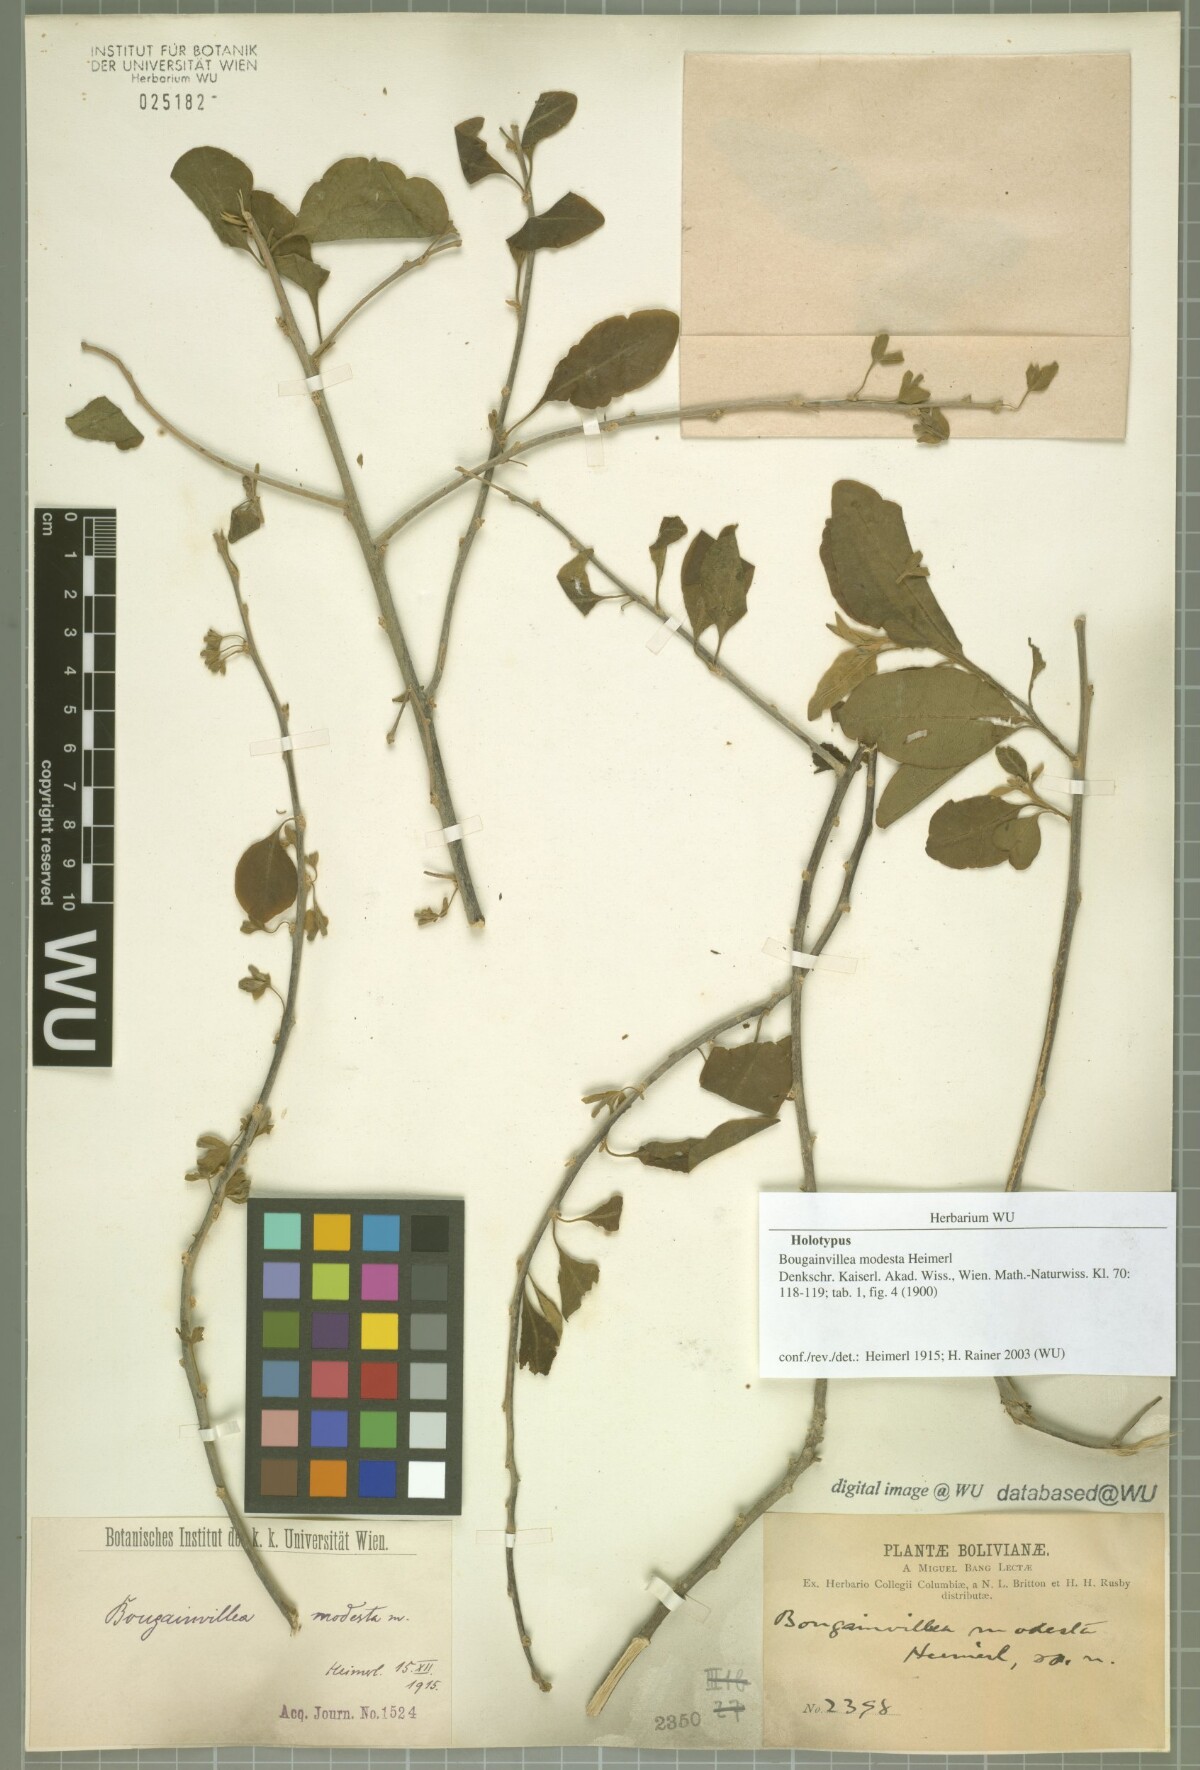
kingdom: Plantae
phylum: Tracheophyta
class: Magnoliopsida
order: Caryophyllales
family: Nyctaginaceae
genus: Bougainvillea
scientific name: Bougainvillea modesta
